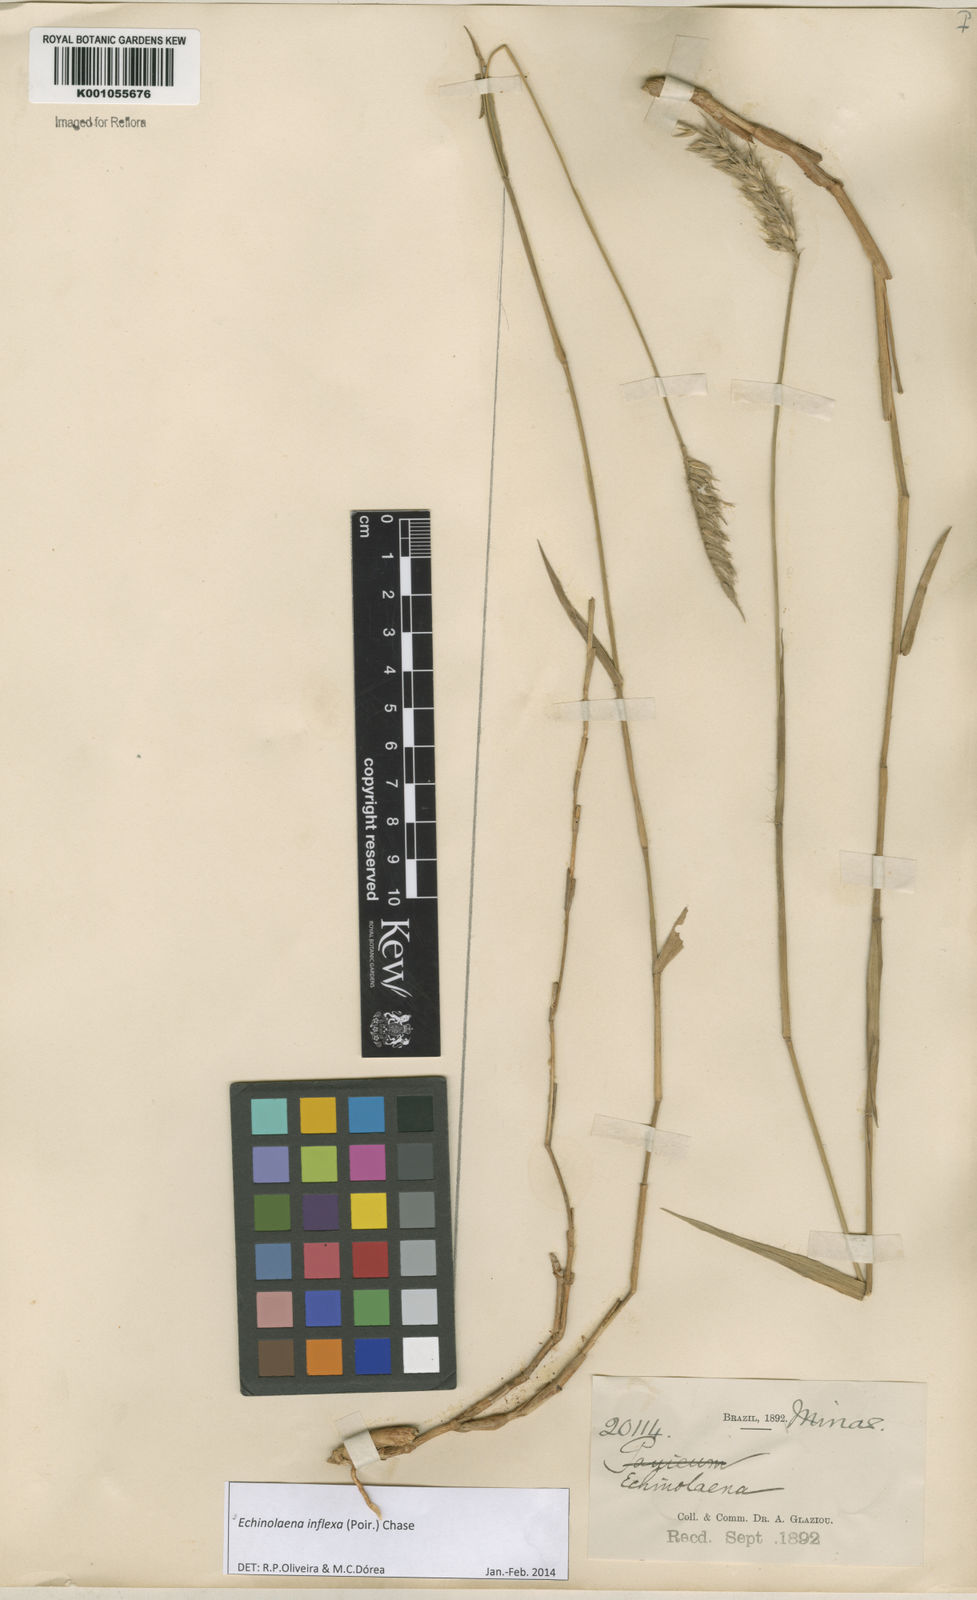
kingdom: Plantae
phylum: Tracheophyta
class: Liliopsida
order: Poales
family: Poaceae
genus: Echinolaena
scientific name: Echinolaena inflexa
